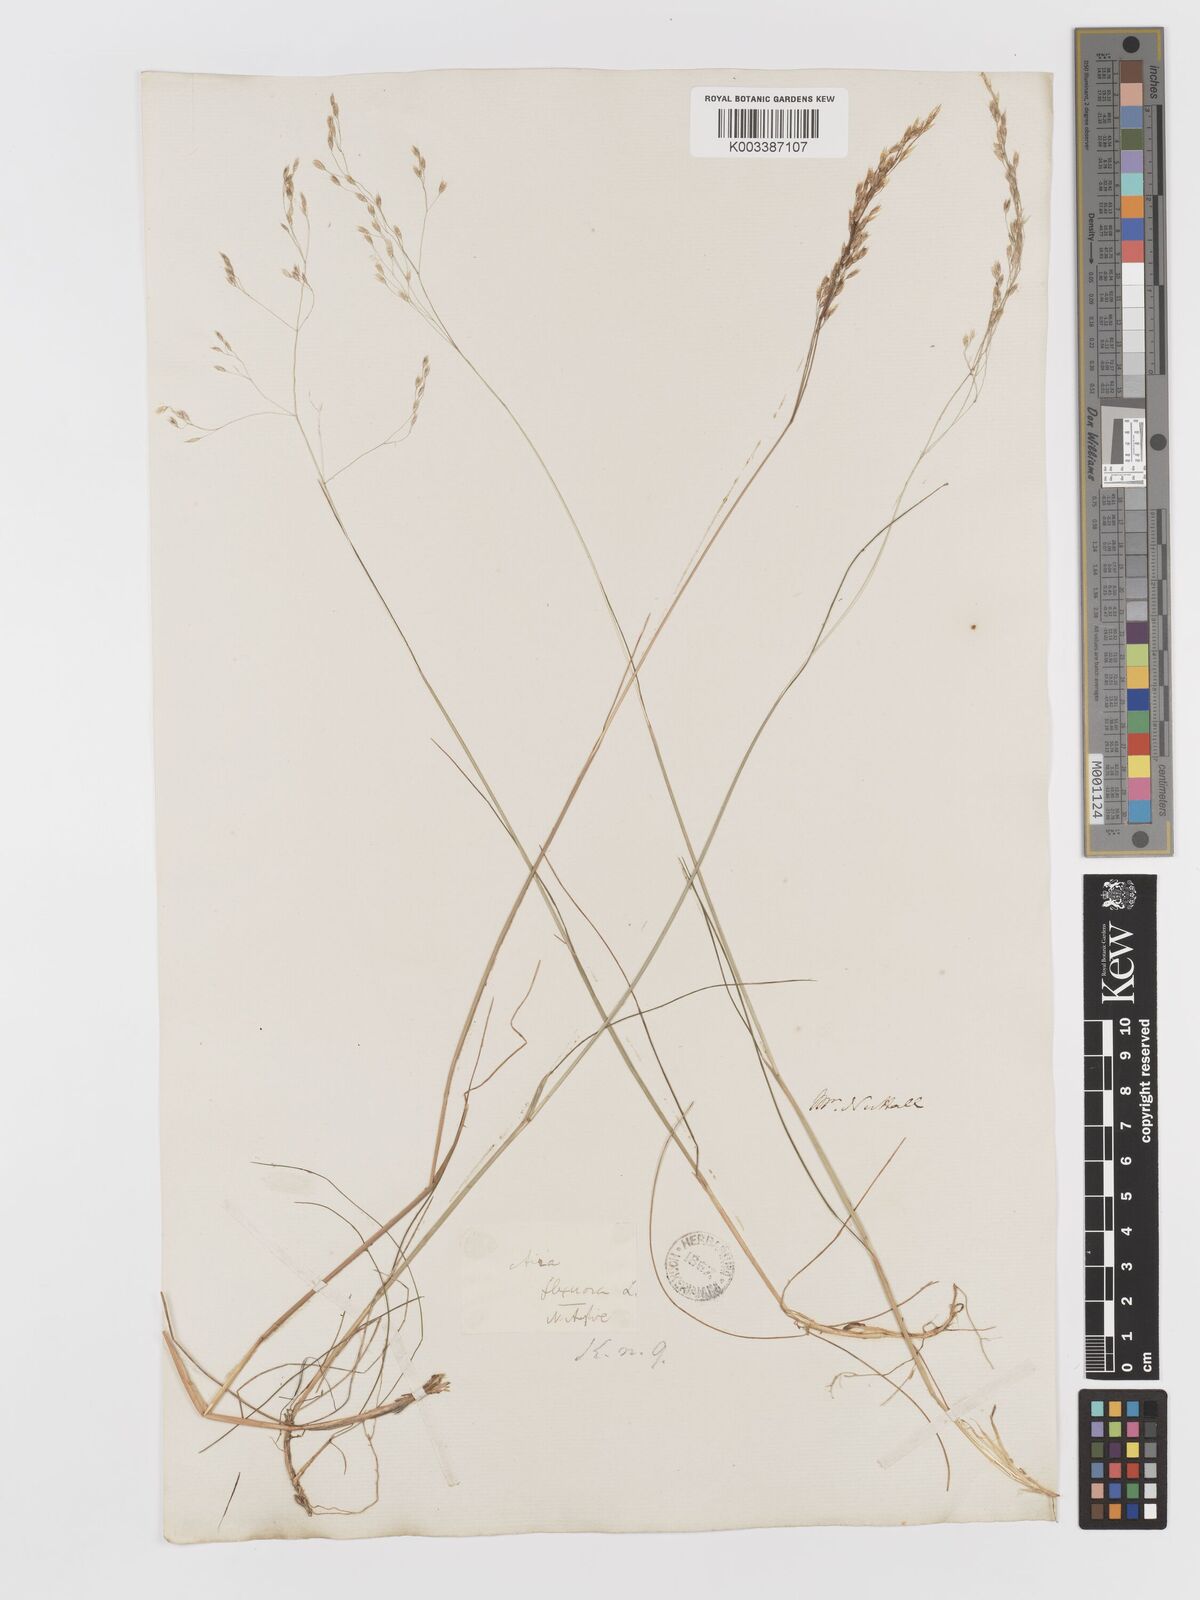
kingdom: Plantae
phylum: Tracheophyta
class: Liliopsida
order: Poales
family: Poaceae
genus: Avenella
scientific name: Avenella flexuosa
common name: Wavy hairgrass
